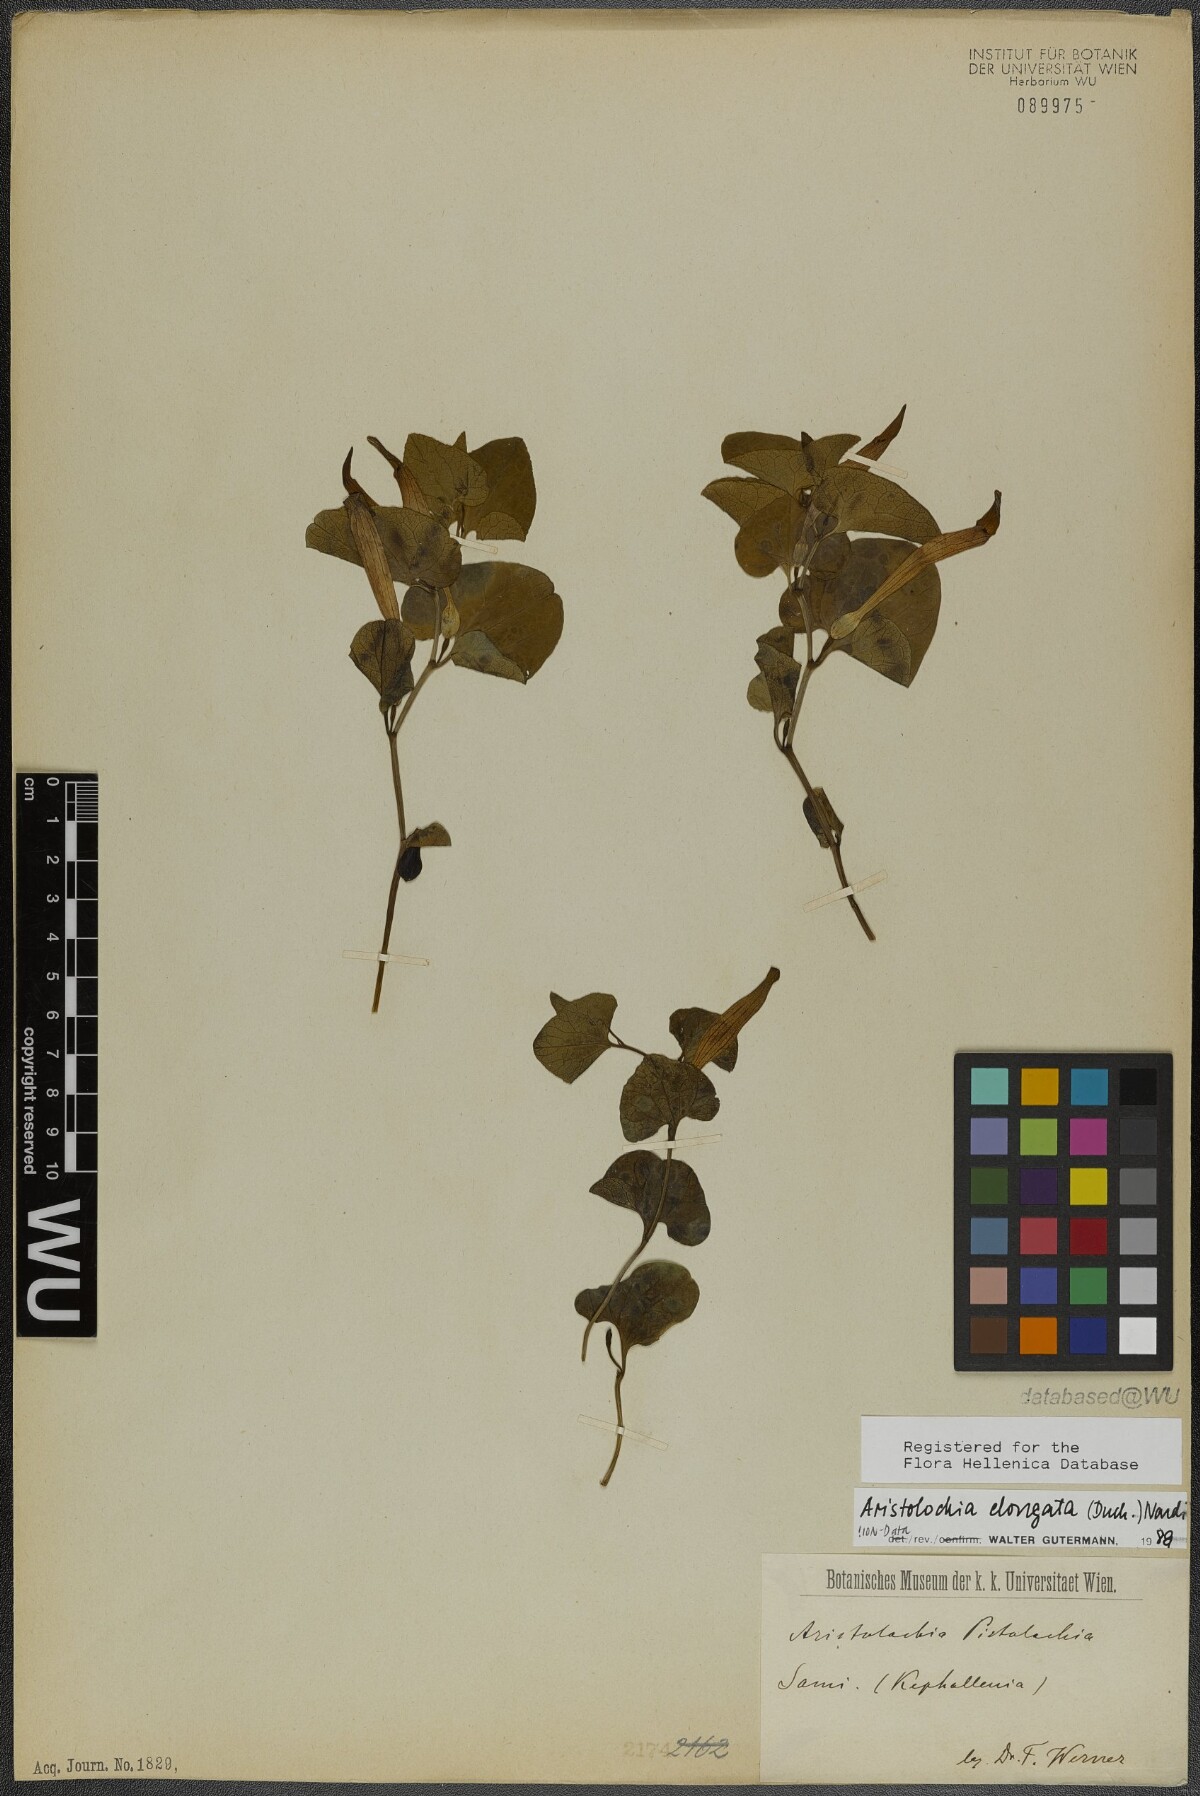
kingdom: Plantae
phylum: Tracheophyta
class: Magnoliopsida
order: Piperales
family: Aristolochiaceae
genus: Aristolochia
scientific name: Aristolochia nardiana
